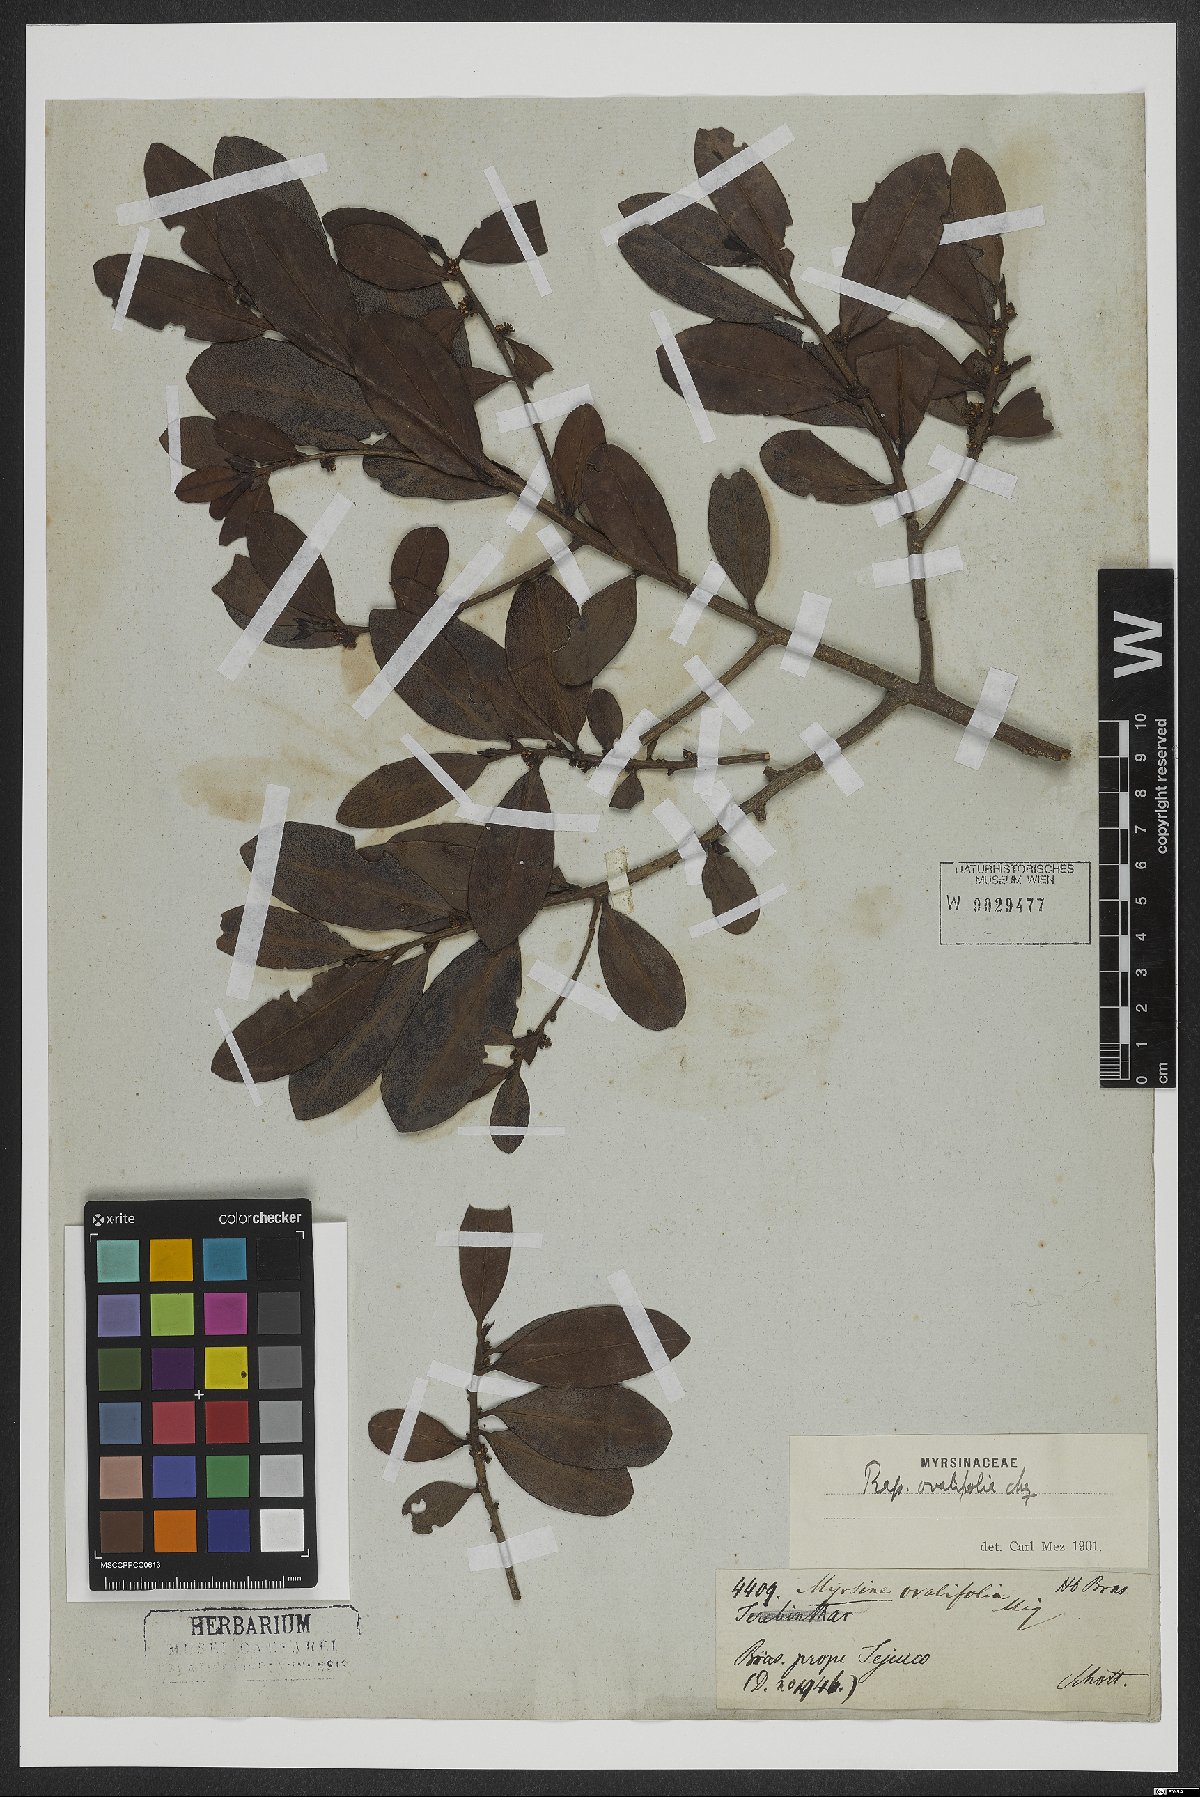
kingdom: Plantae
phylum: Tracheophyta
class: Magnoliopsida
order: Ericales
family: Primulaceae
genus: Myrsine
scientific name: Myrsine miquelii
